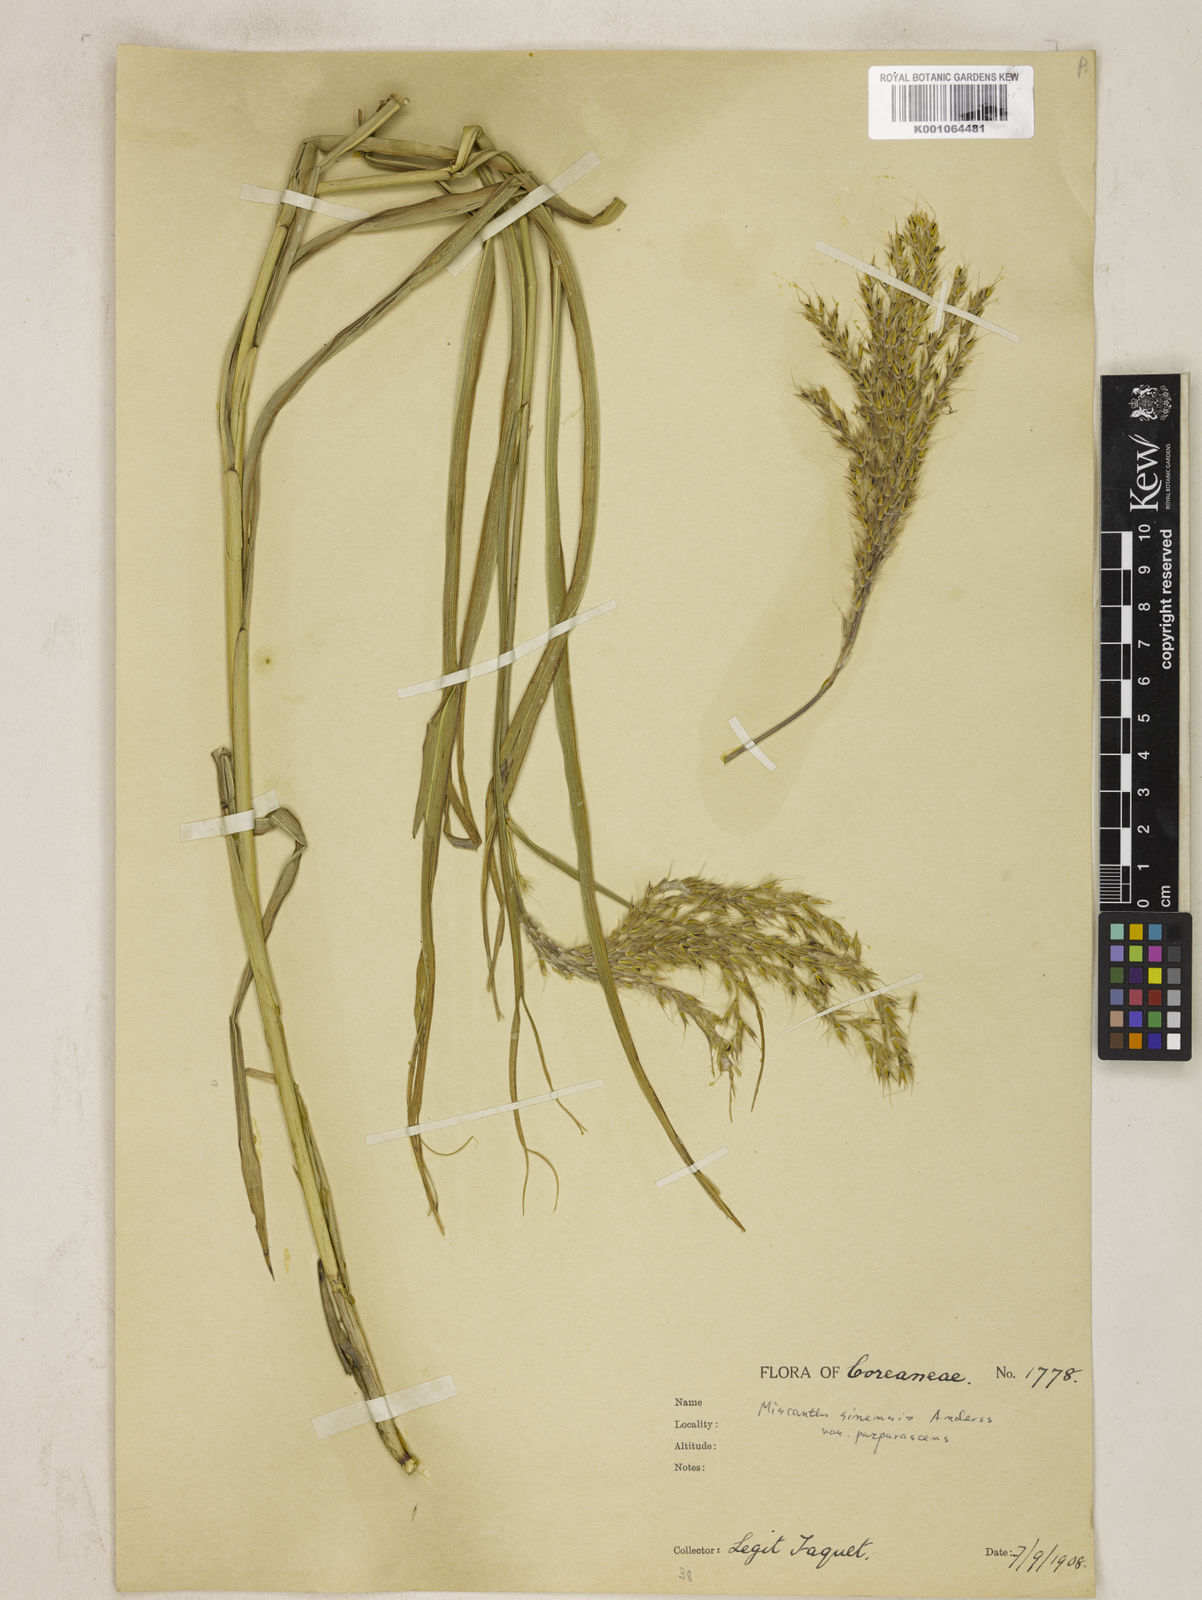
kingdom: Plantae
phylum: Tracheophyta
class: Liliopsida
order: Poales
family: Poaceae
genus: Miscanthus
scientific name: Miscanthus sinensis
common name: Chinese silvergrass
